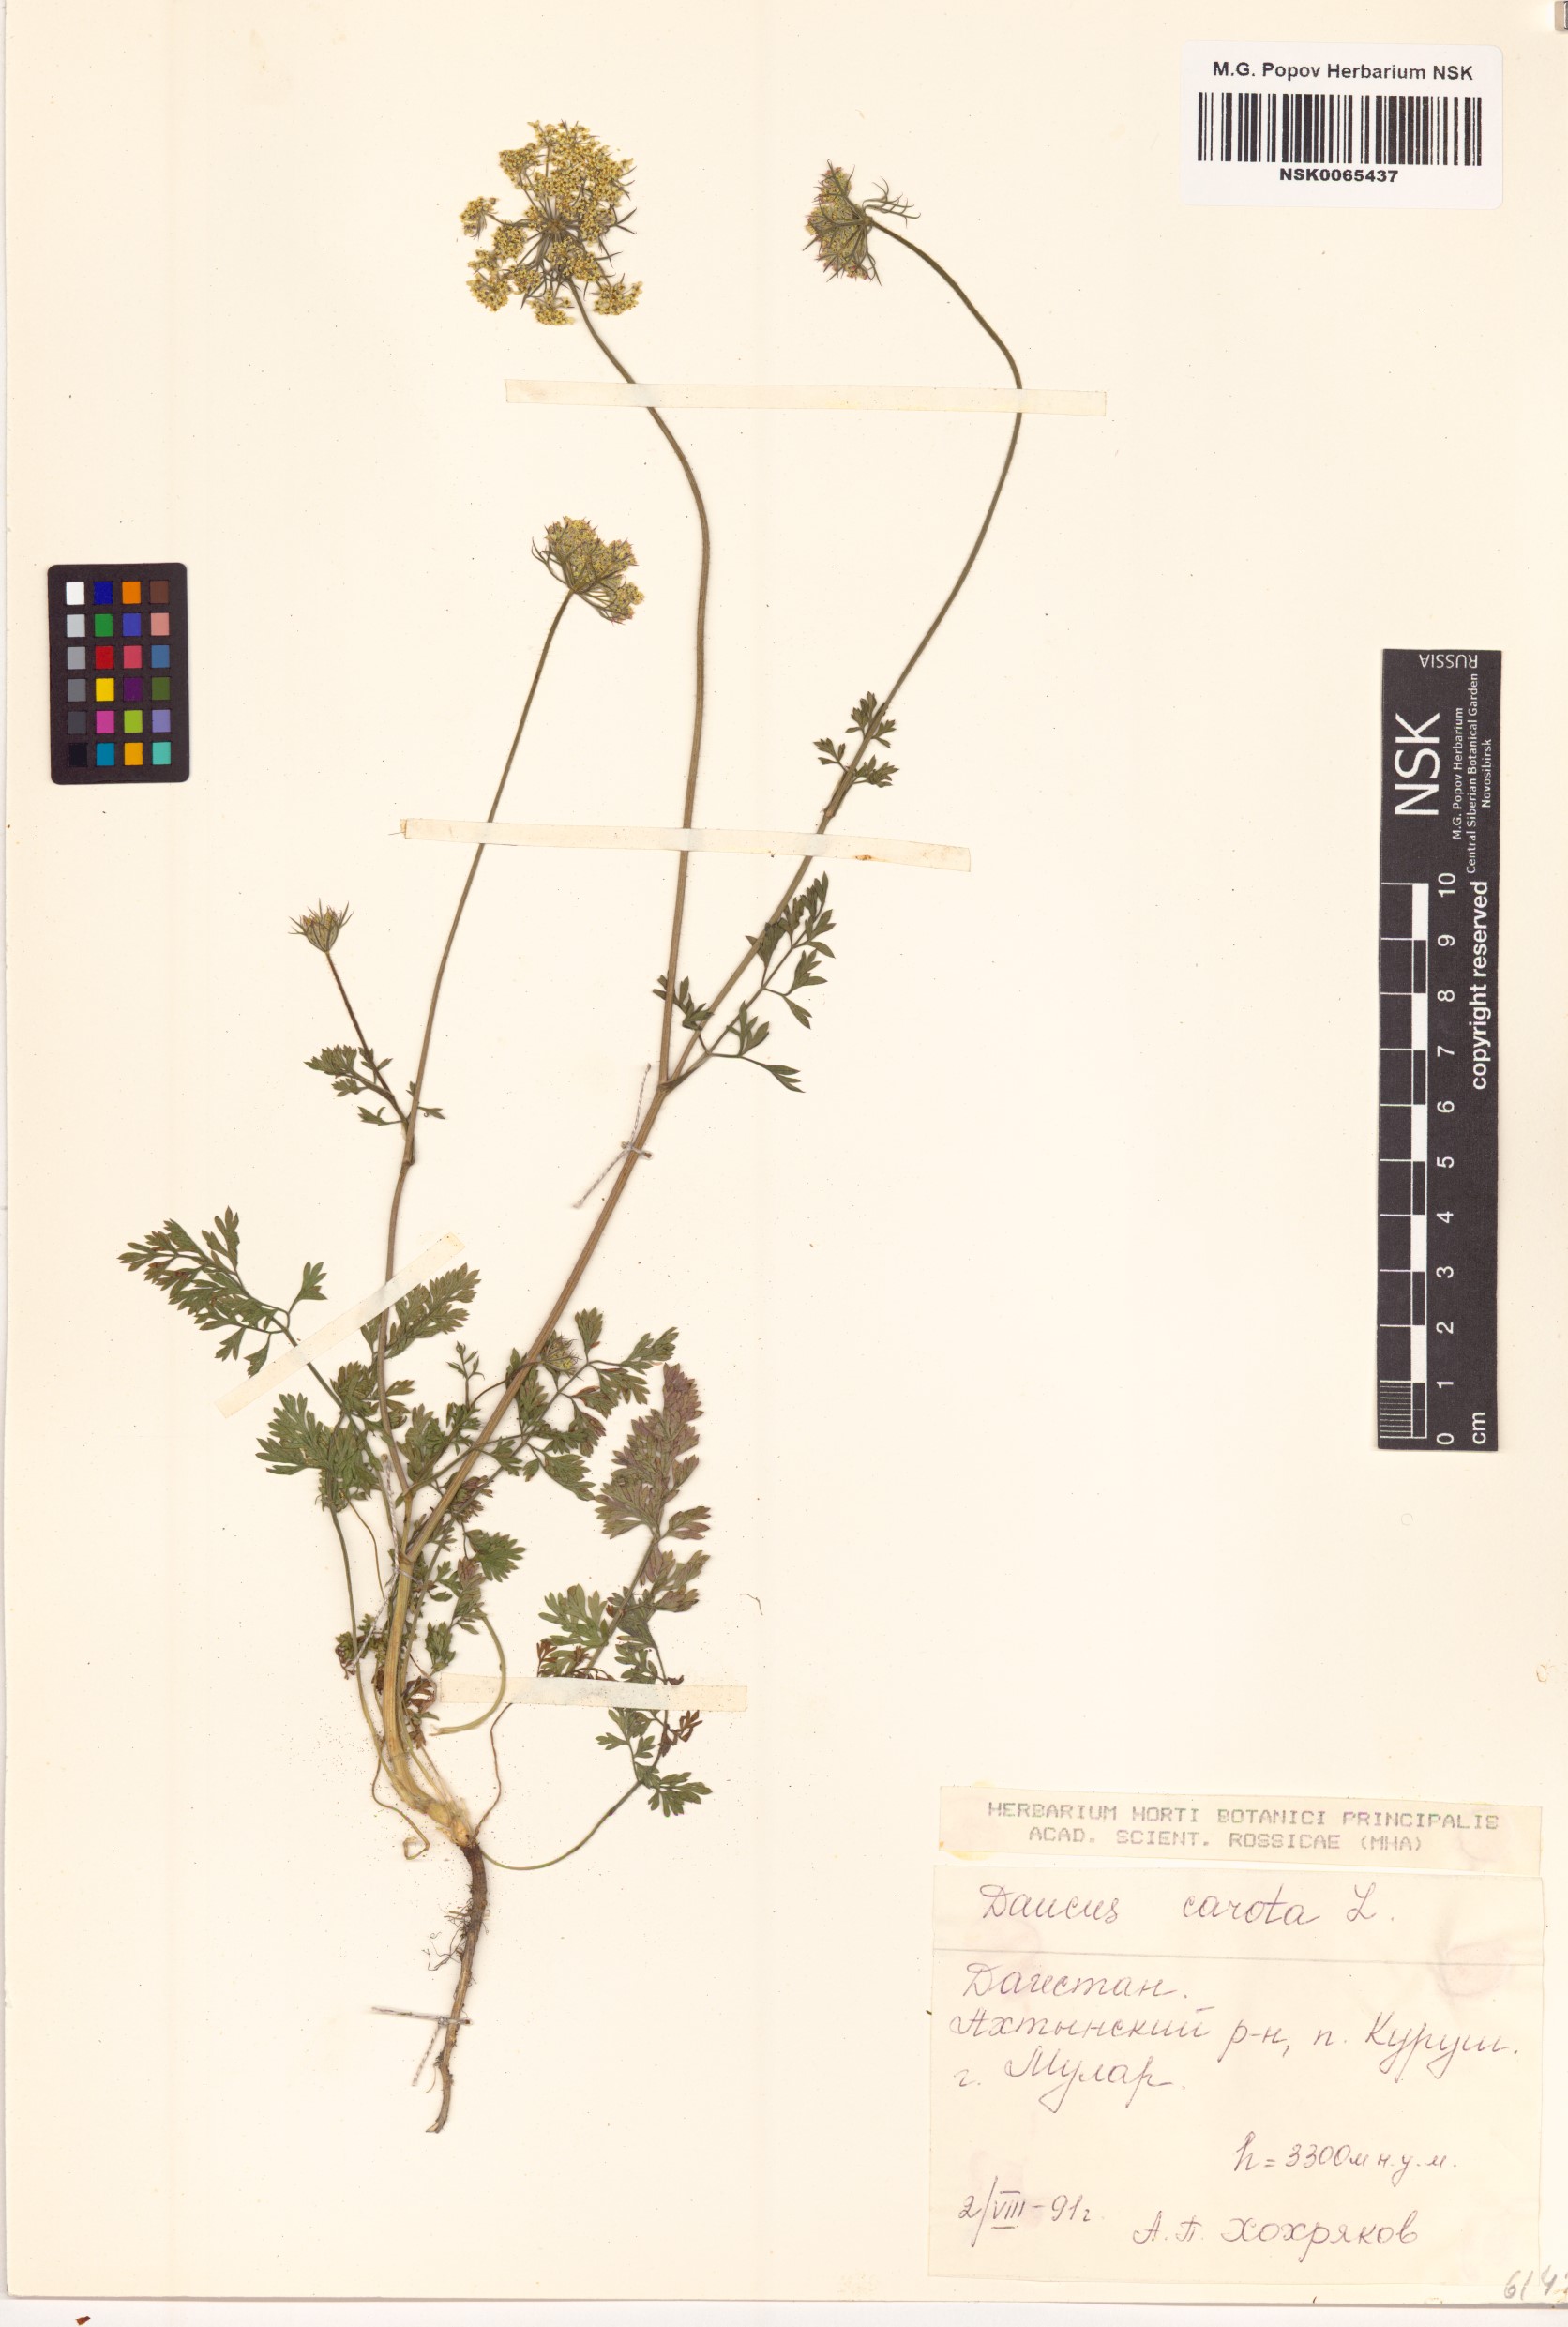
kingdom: Plantae
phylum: Tracheophyta
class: Magnoliopsida
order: Apiales
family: Apiaceae
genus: Daucus
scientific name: Daucus carota
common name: Wild carrot
